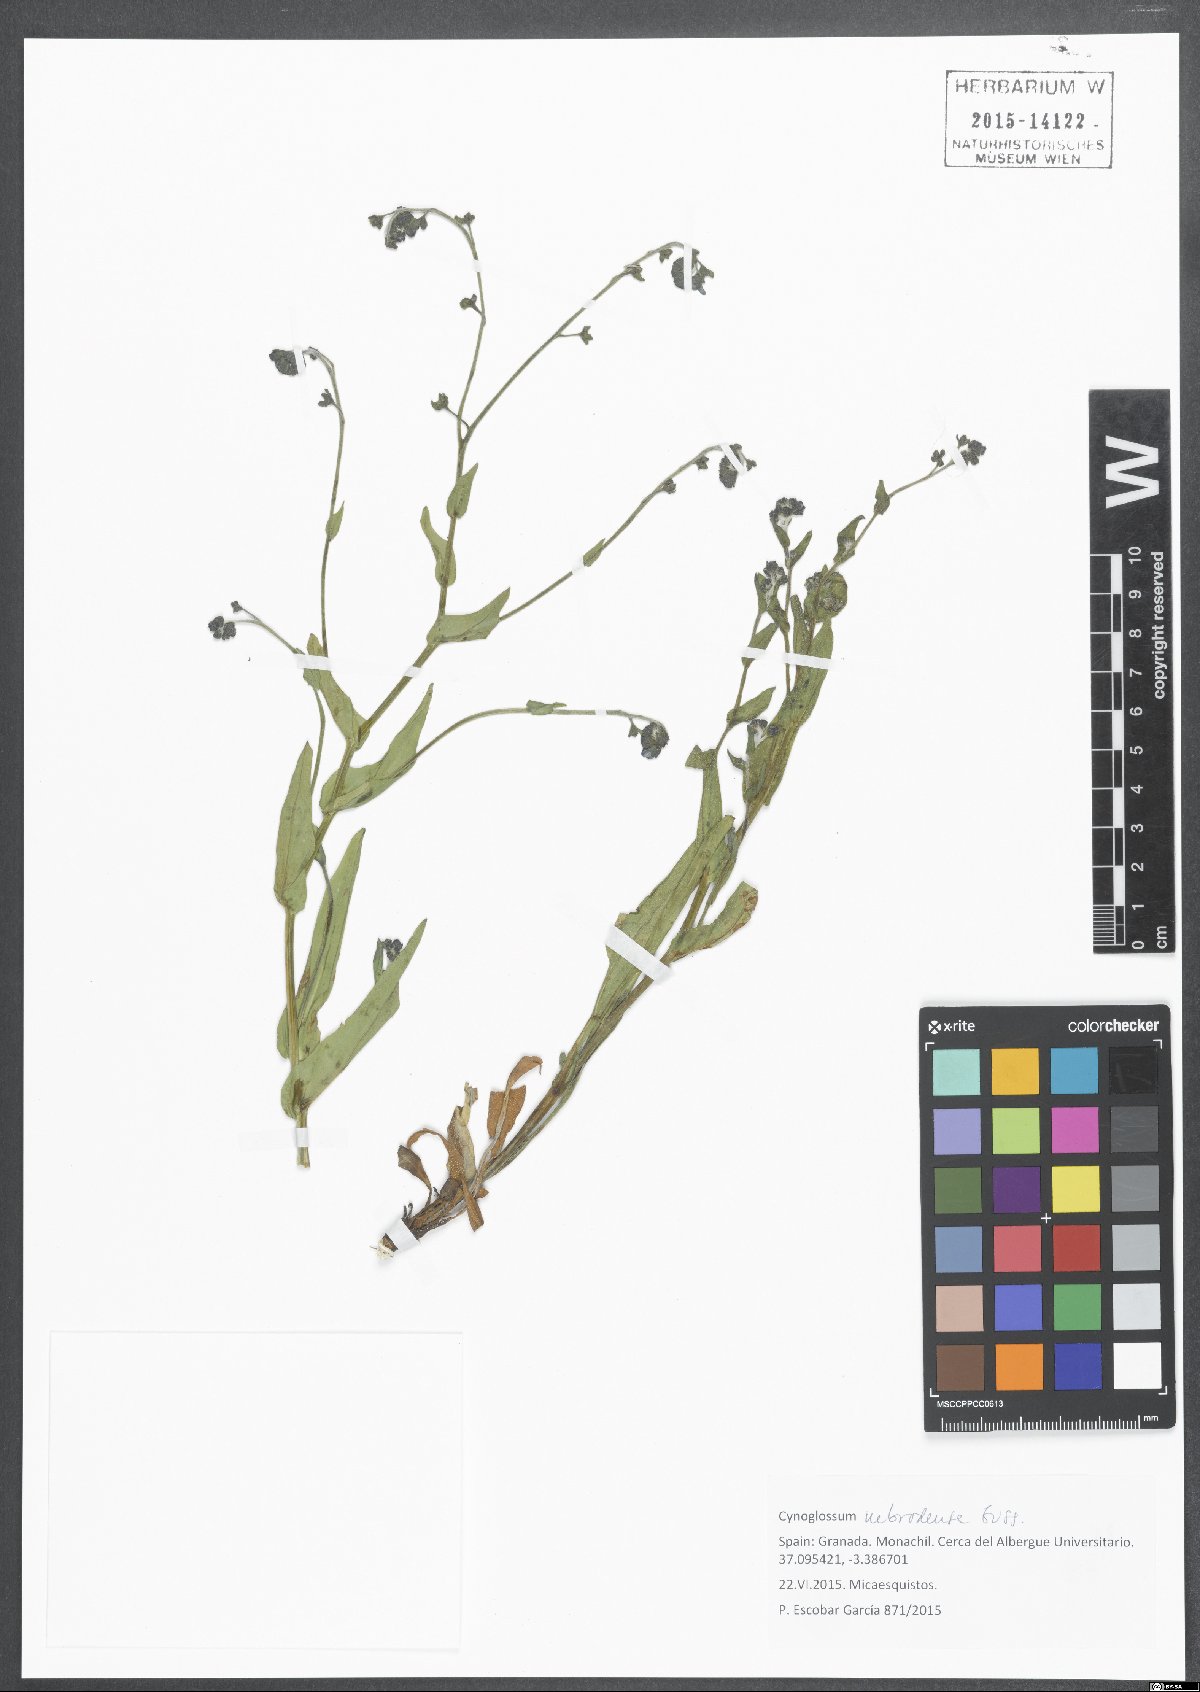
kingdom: Plantae
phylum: Tracheophyta
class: Magnoliopsida
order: Boraginales
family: Boraginaceae
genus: Cynoglossum
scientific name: Cynoglossum nebrodense
